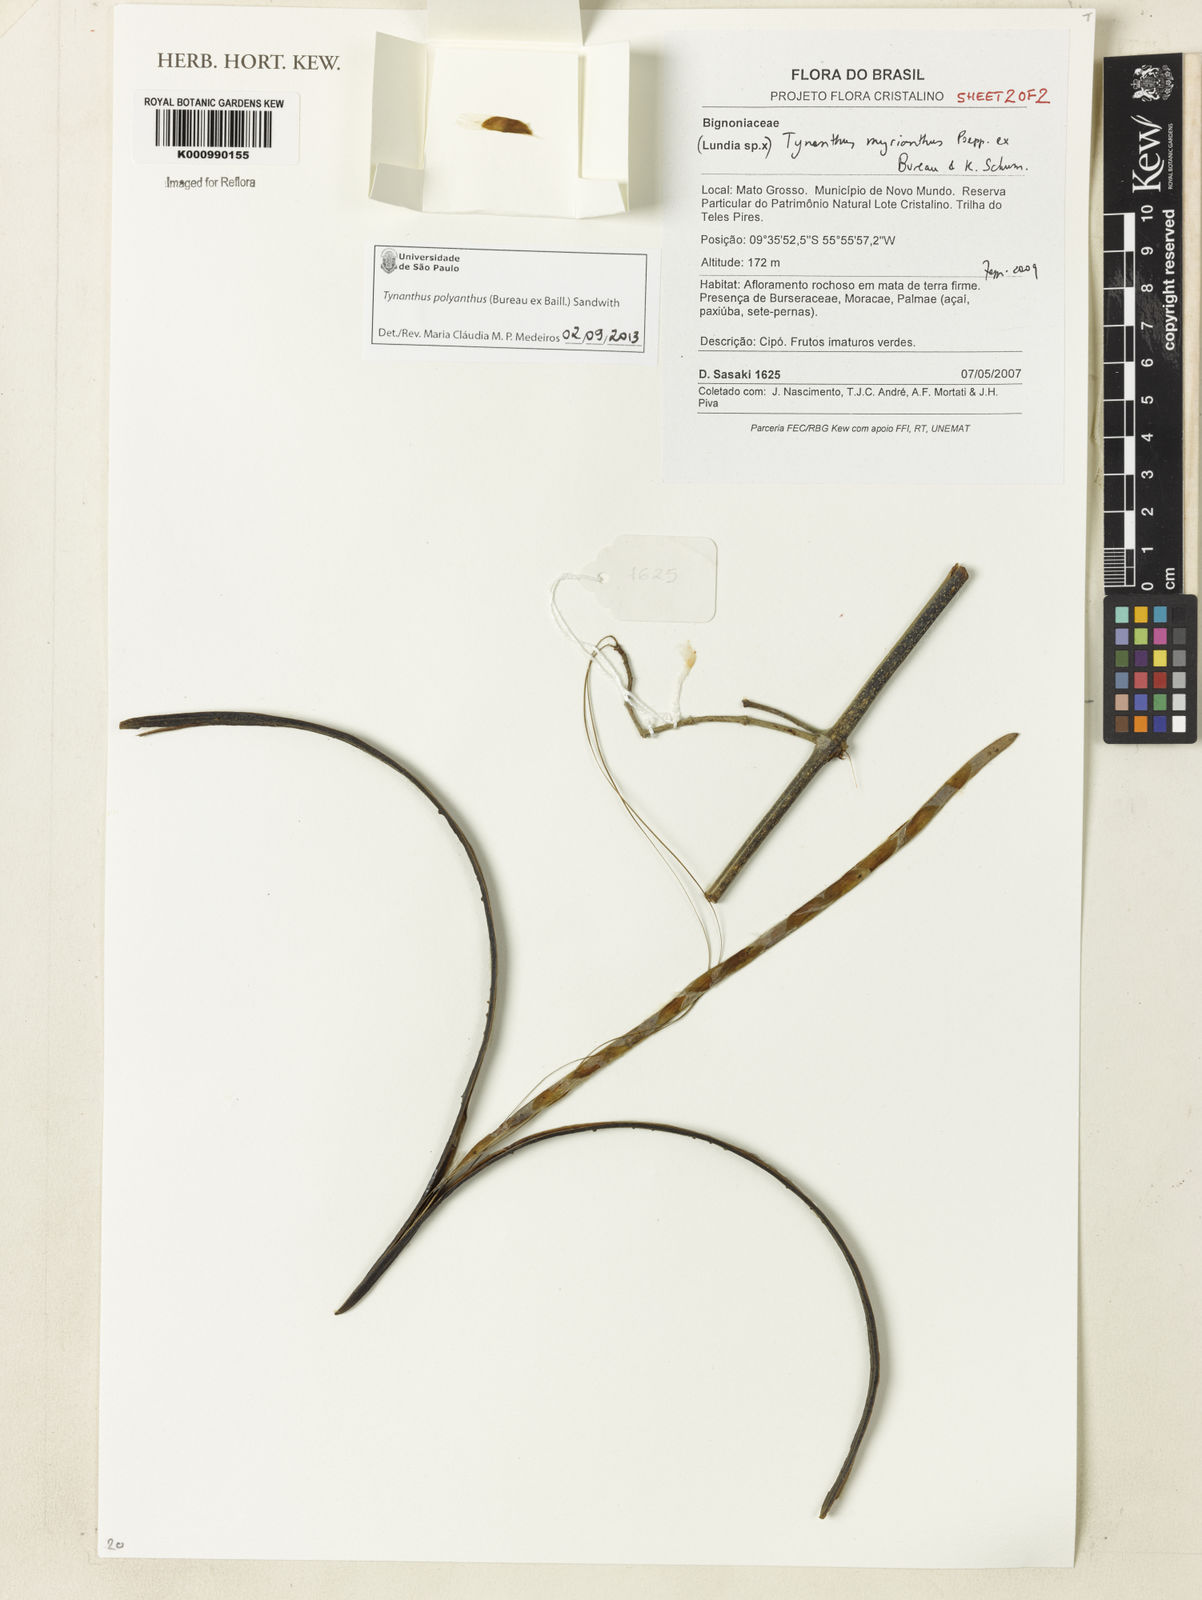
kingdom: Plantae
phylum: Tracheophyta
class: Magnoliopsida
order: Lamiales
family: Bignoniaceae
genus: Tynanthus
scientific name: Tynanthus polyanthus
